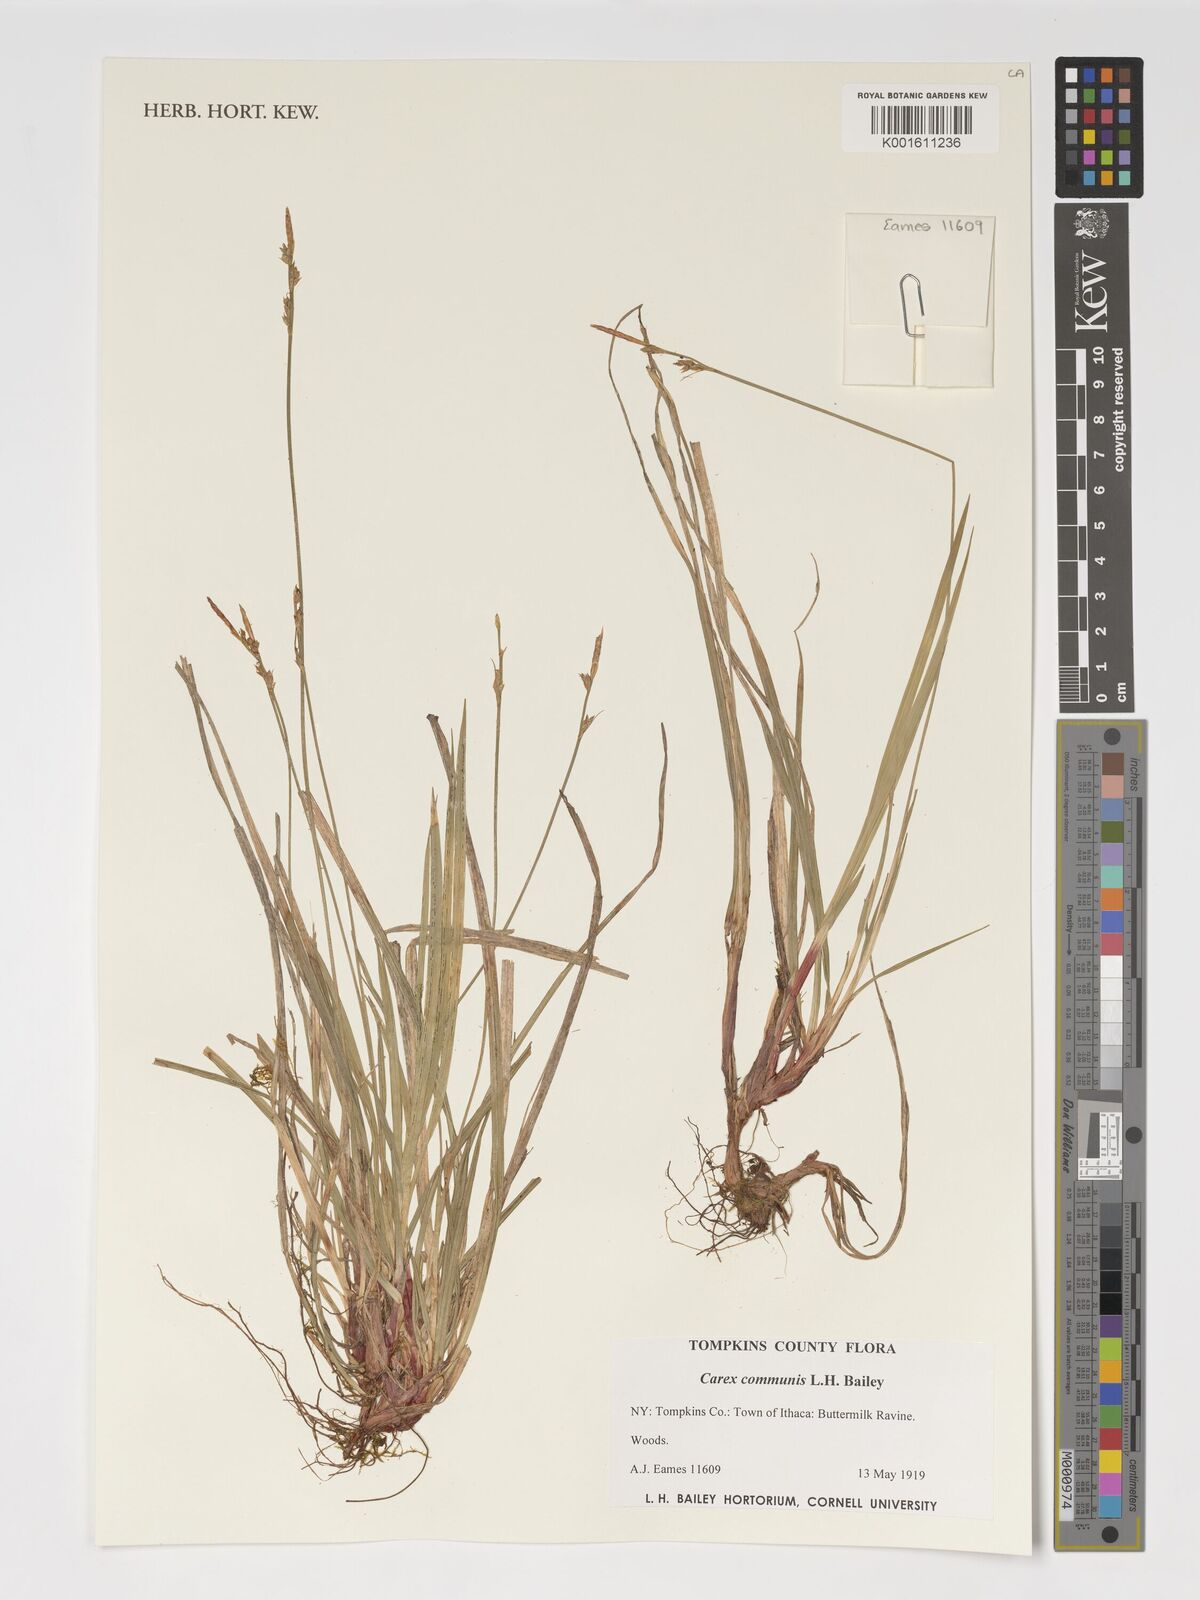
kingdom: Plantae
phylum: Tracheophyta
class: Liliopsida
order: Poales
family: Cyperaceae
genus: Carex
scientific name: Carex communis
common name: Colonial oak sedge
